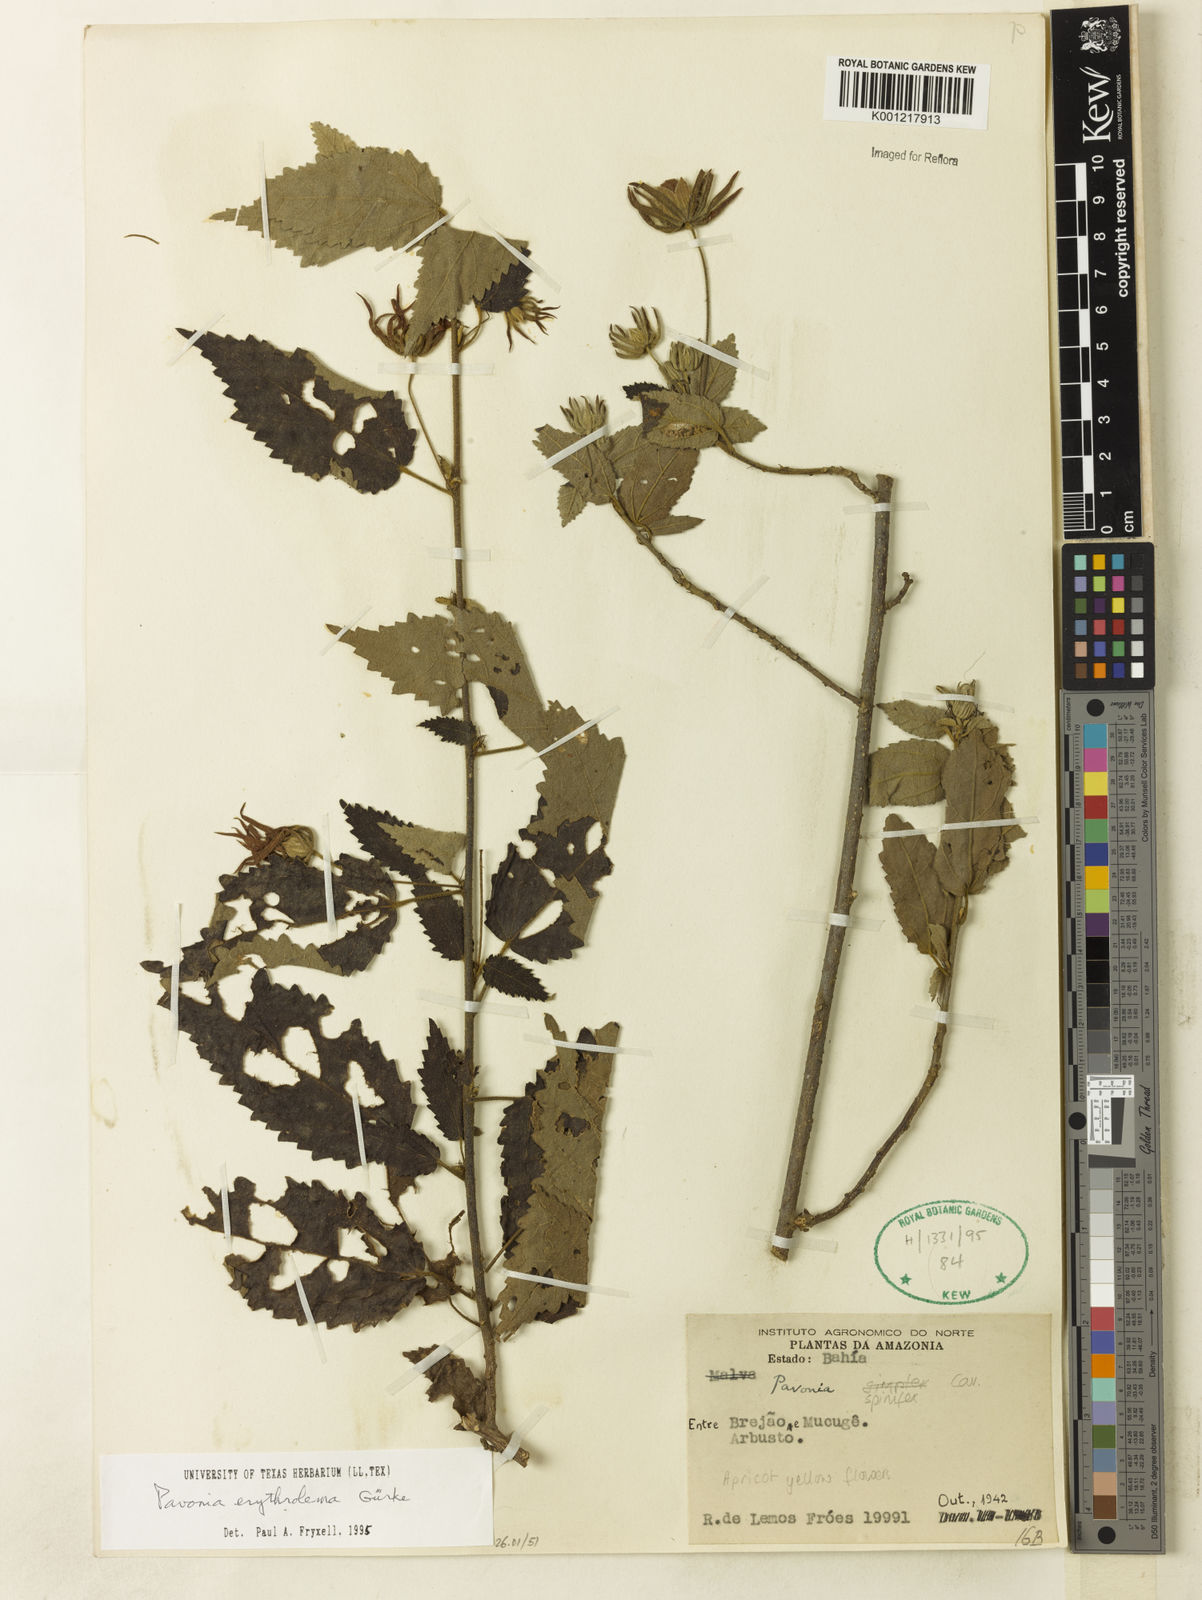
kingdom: Plantae
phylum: Tracheophyta
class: Magnoliopsida
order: Malvales
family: Malvaceae
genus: Pavonia
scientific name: Pavonia
